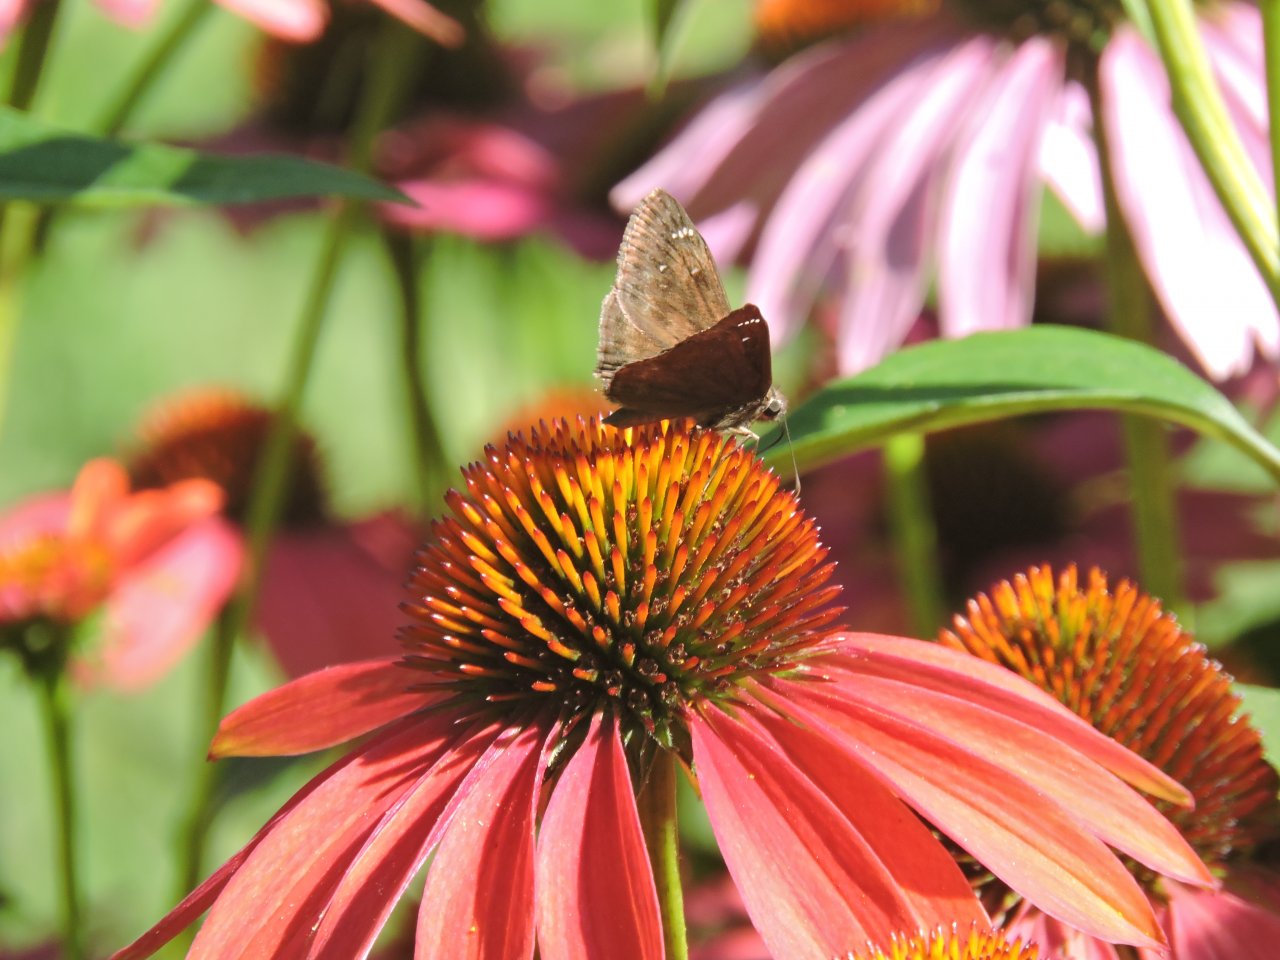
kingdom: Animalia
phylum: Arthropoda
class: Insecta
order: Lepidoptera
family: Hesperiidae
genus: Gesta
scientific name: Gesta
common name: Horace's Duskywing
